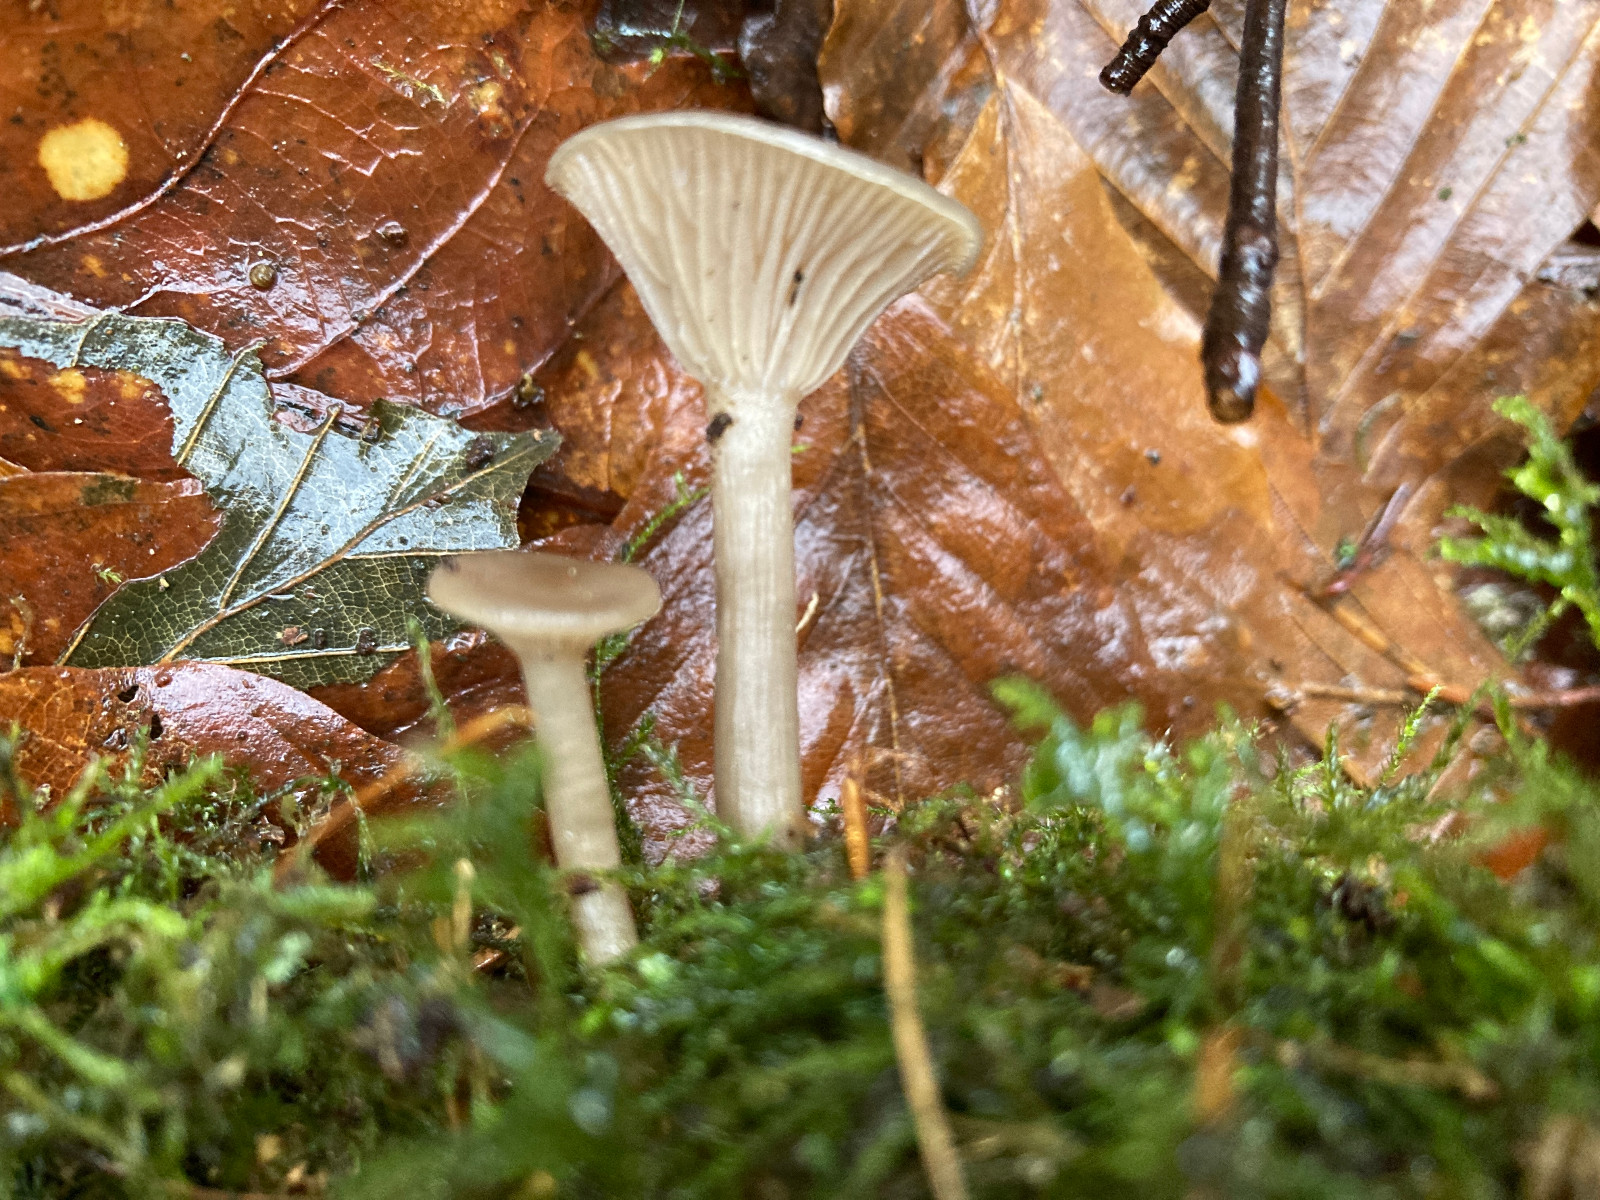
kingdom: Fungi
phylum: Basidiomycota
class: Agaricomycetes
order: Agaricales
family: Pseudoclitocybaceae
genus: Pseudoclitocybe
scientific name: Pseudoclitocybe cyathiformis
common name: almindelig bægertragthat
